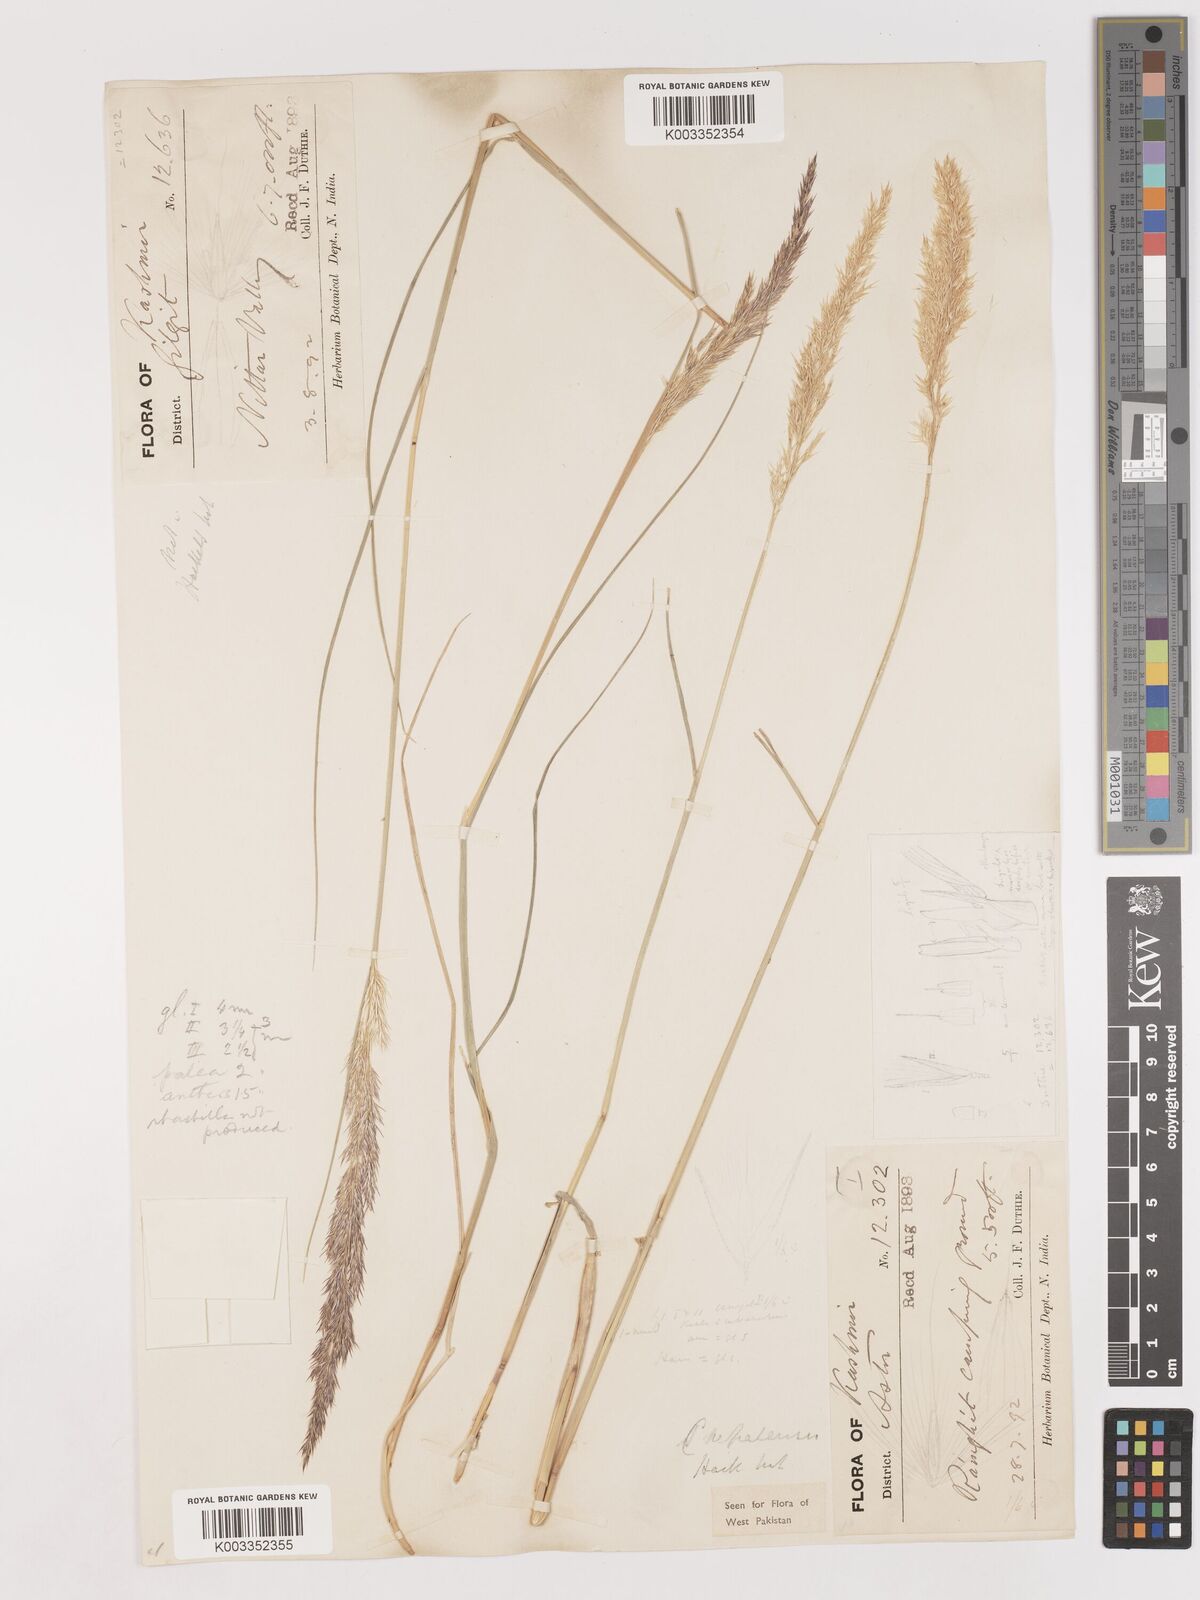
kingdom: Plantae
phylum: Tracheophyta
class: Liliopsida
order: Poales
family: Poaceae
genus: Calamagrostis
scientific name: Calamagrostis pseudophragmites
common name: Coastal small-reed
